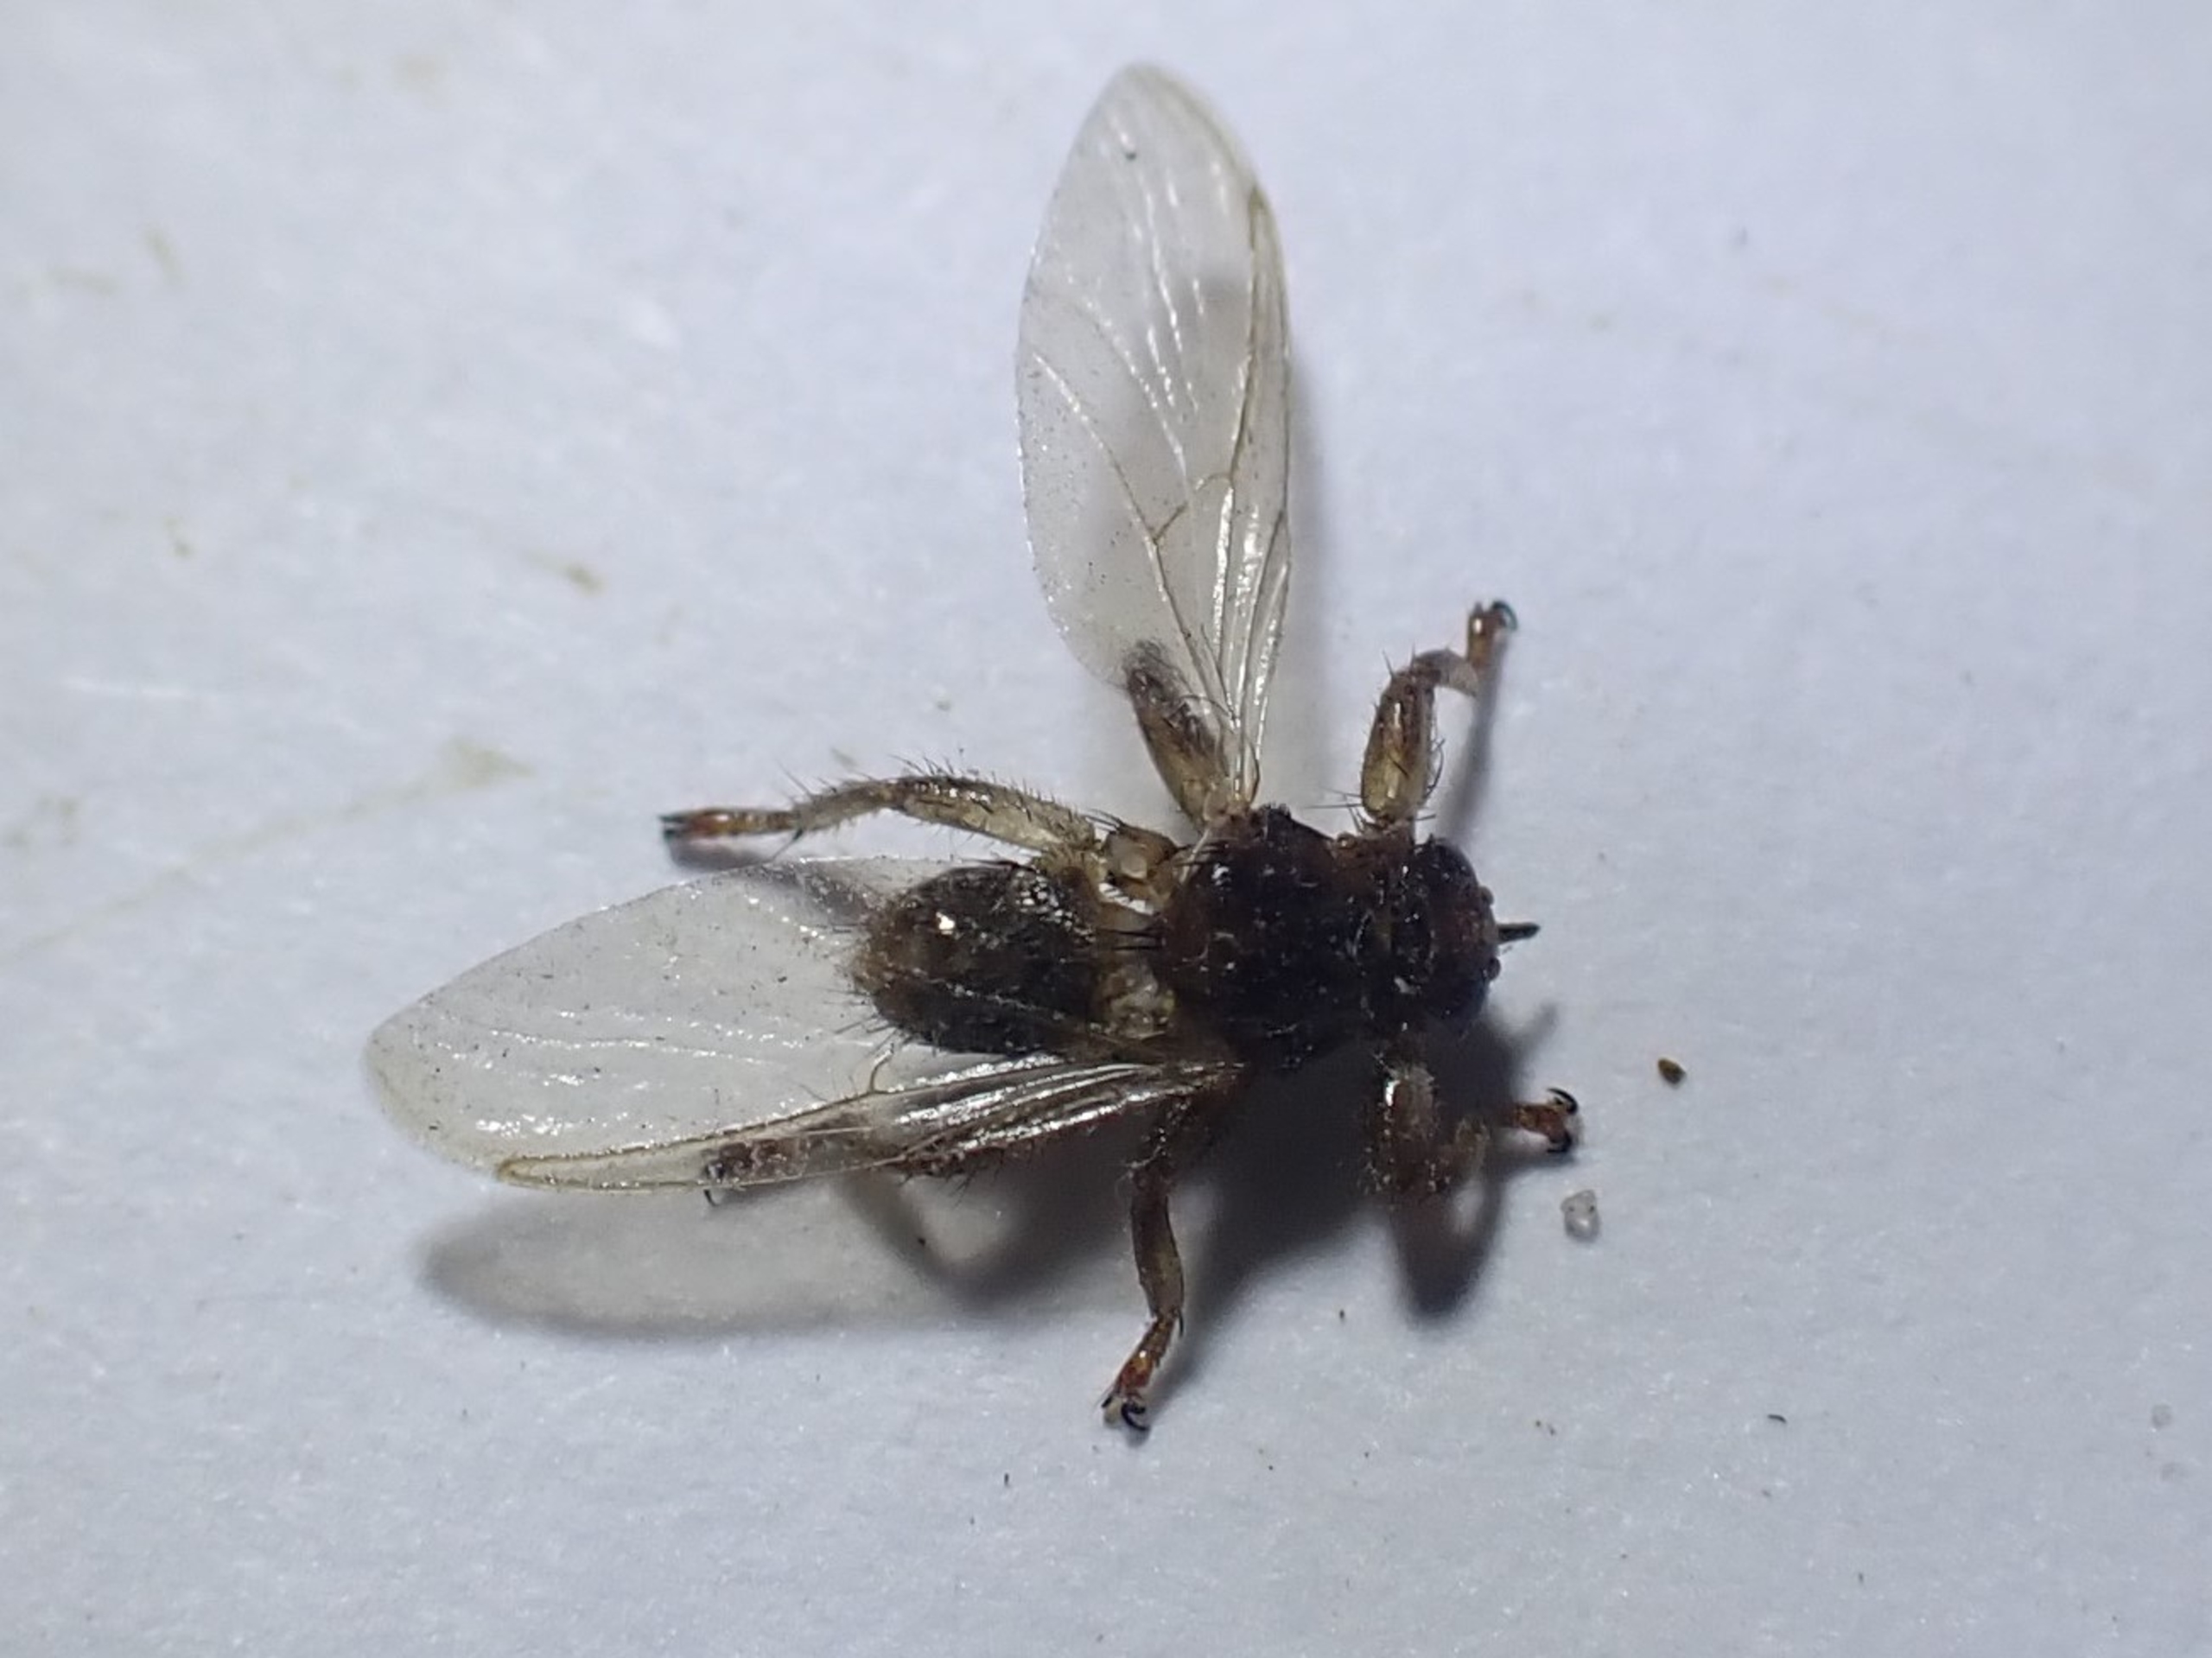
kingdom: Animalia
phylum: Arthropoda
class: Insecta
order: Diptera
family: Hippoboscidae
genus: Lipoptena
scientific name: Lipoptena cervi
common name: Hjortelus
